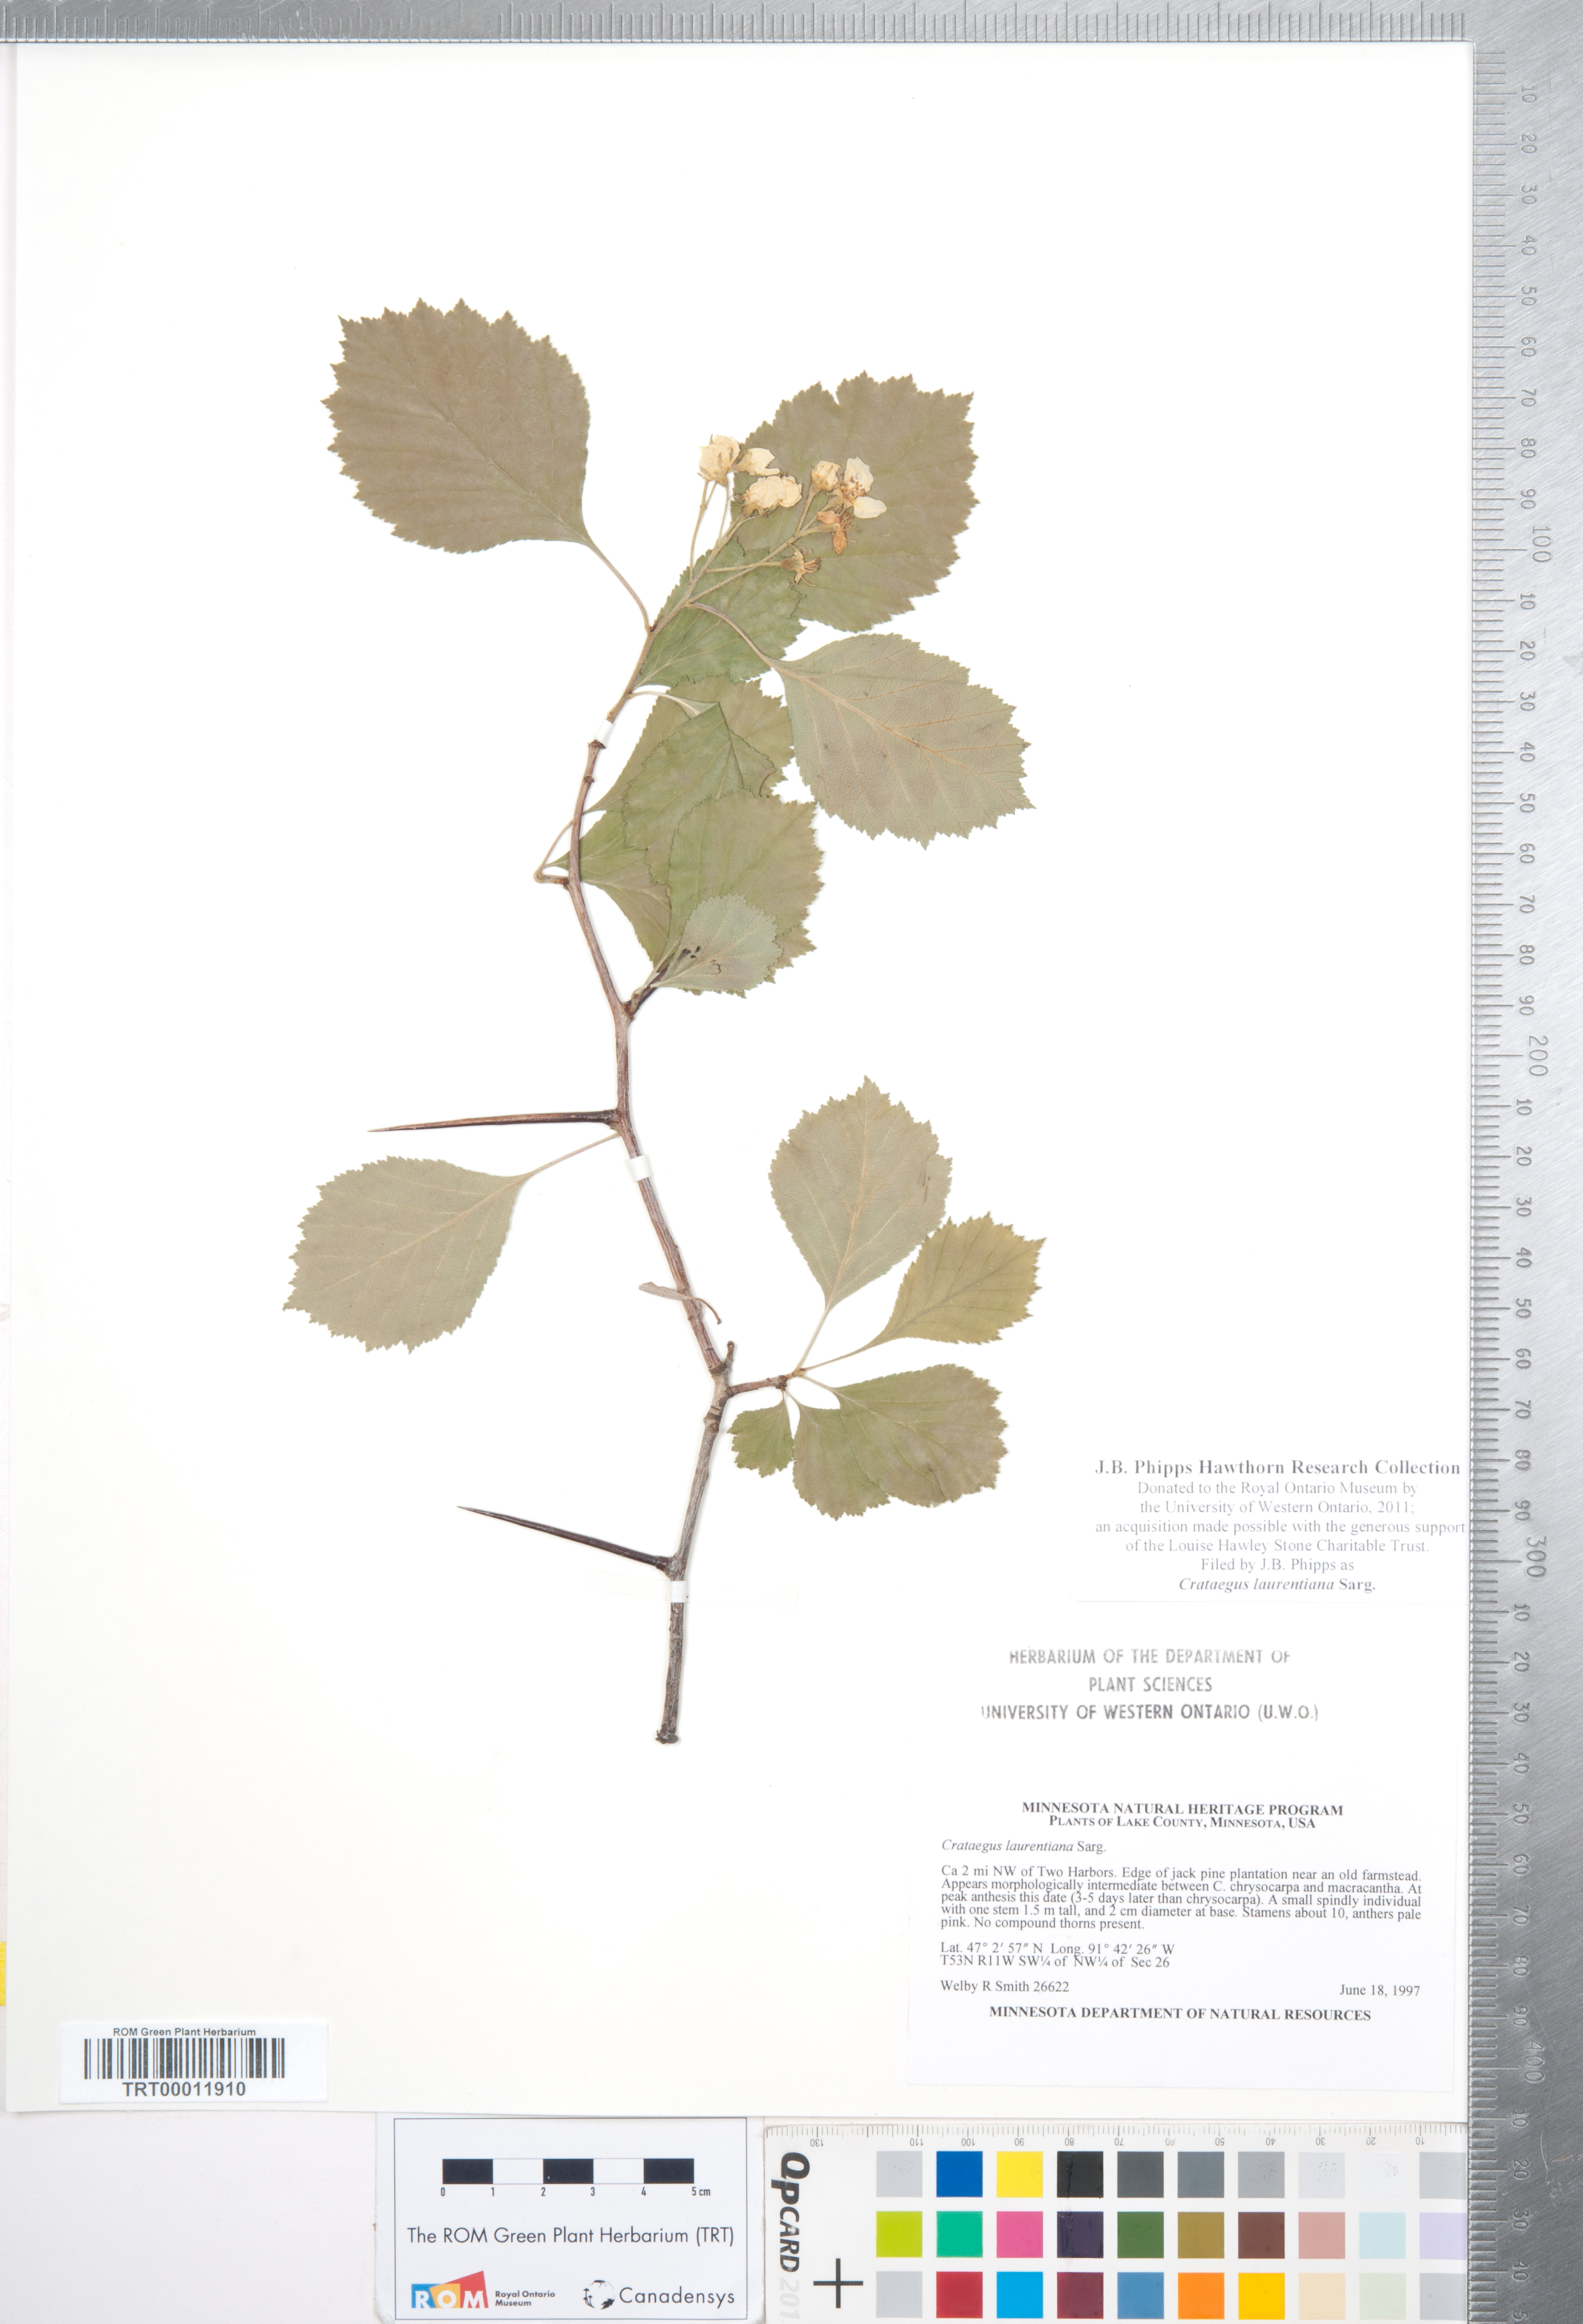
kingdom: Plantae
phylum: Tracheophyta
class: Magnoliopsida
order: Rosales
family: Rosaceae
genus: Crataegus
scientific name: Crataegus jonesiae
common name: Jones' hawthorn
